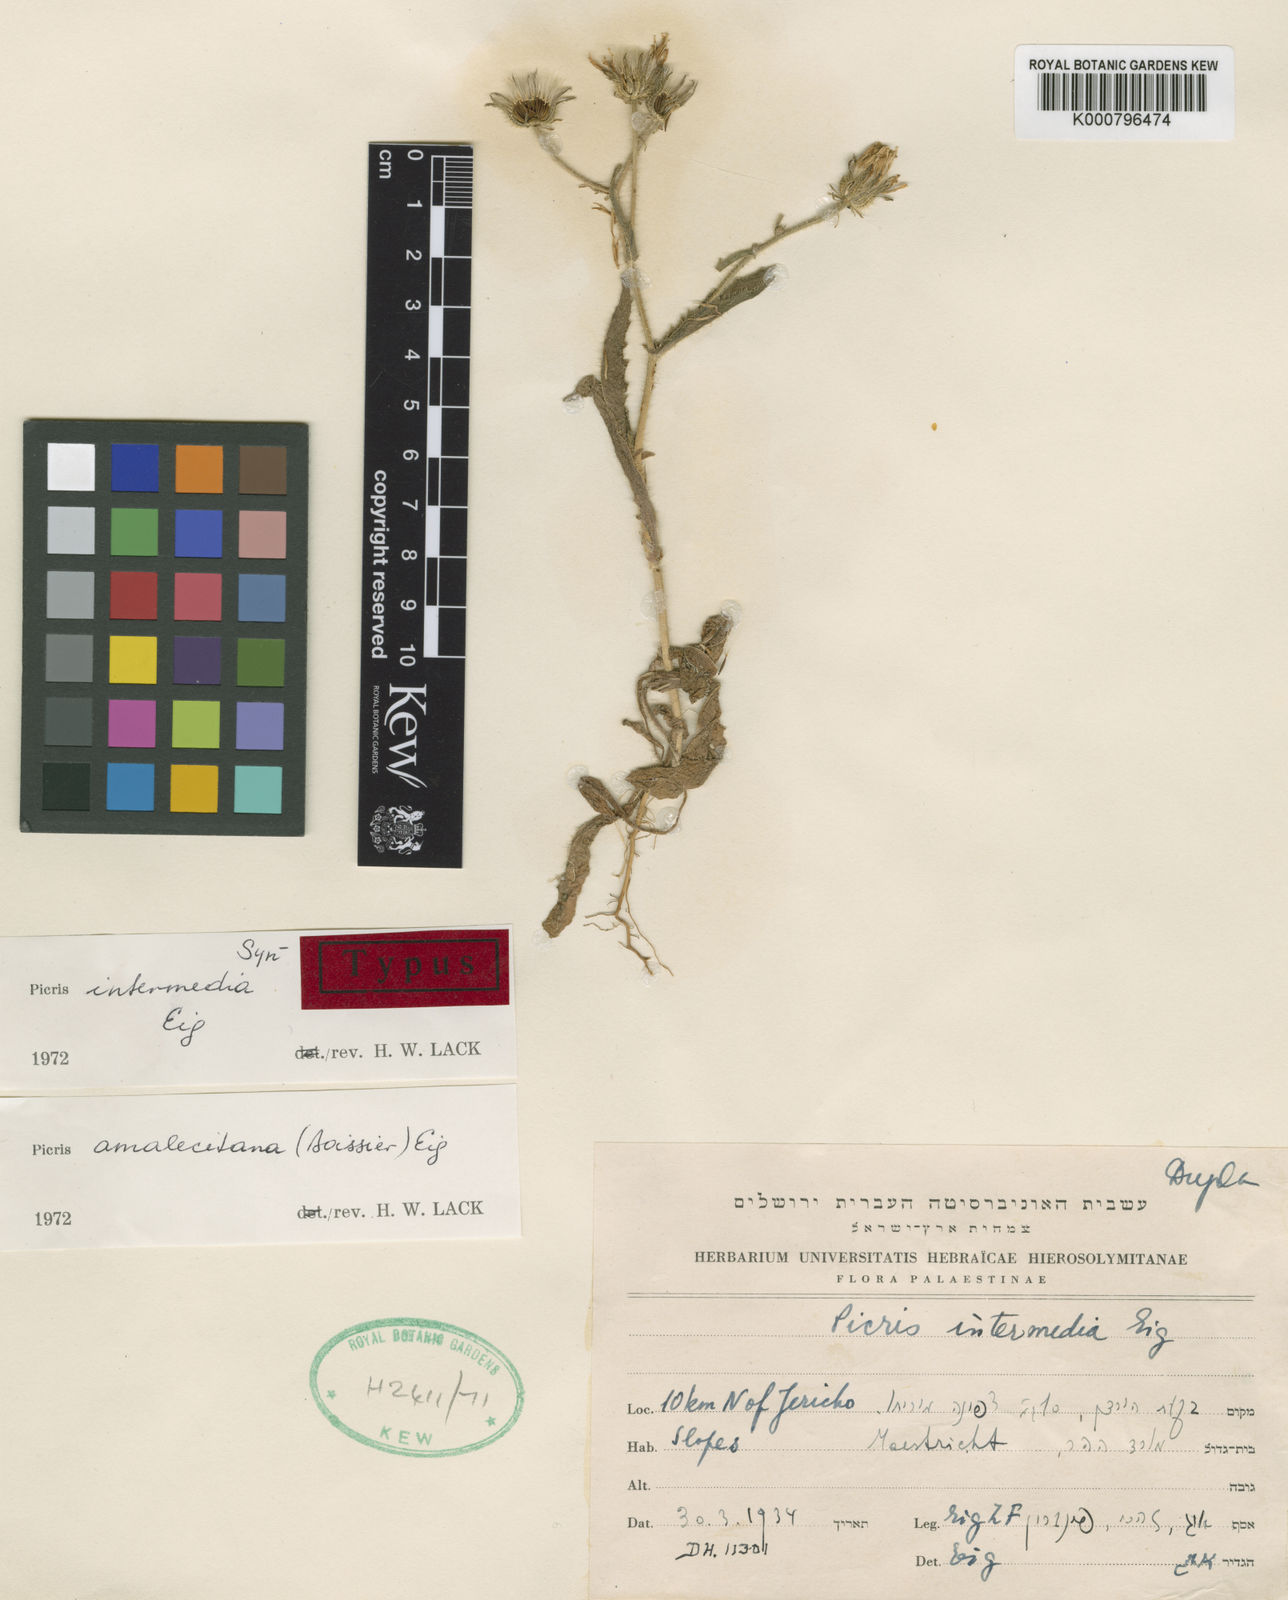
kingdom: Plantae
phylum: Tracheophyta
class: Magnoliopsida
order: Asterales
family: Asteraceae
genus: Picris
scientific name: Picris amalecitana
